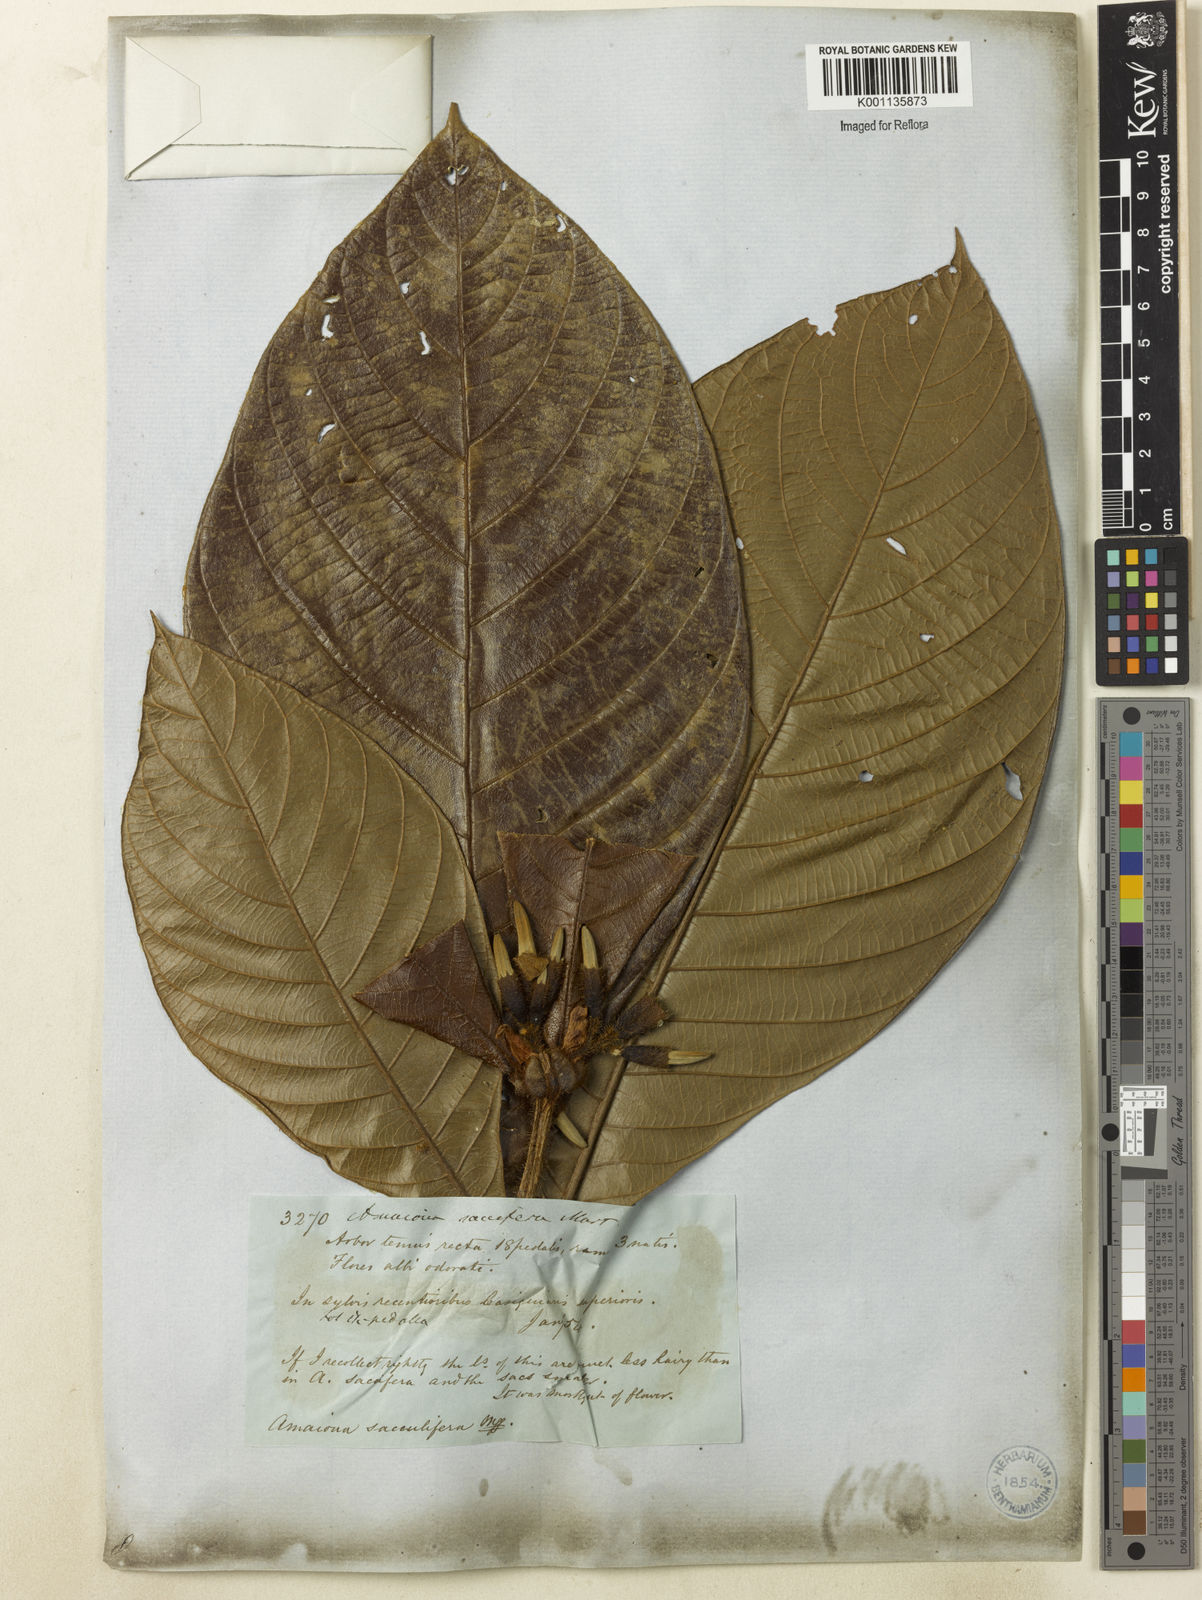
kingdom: Plantae
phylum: Tracheophyta
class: Magnoliopsida
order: Gentianales
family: Rubiaceae
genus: Duroia
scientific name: Duroia
